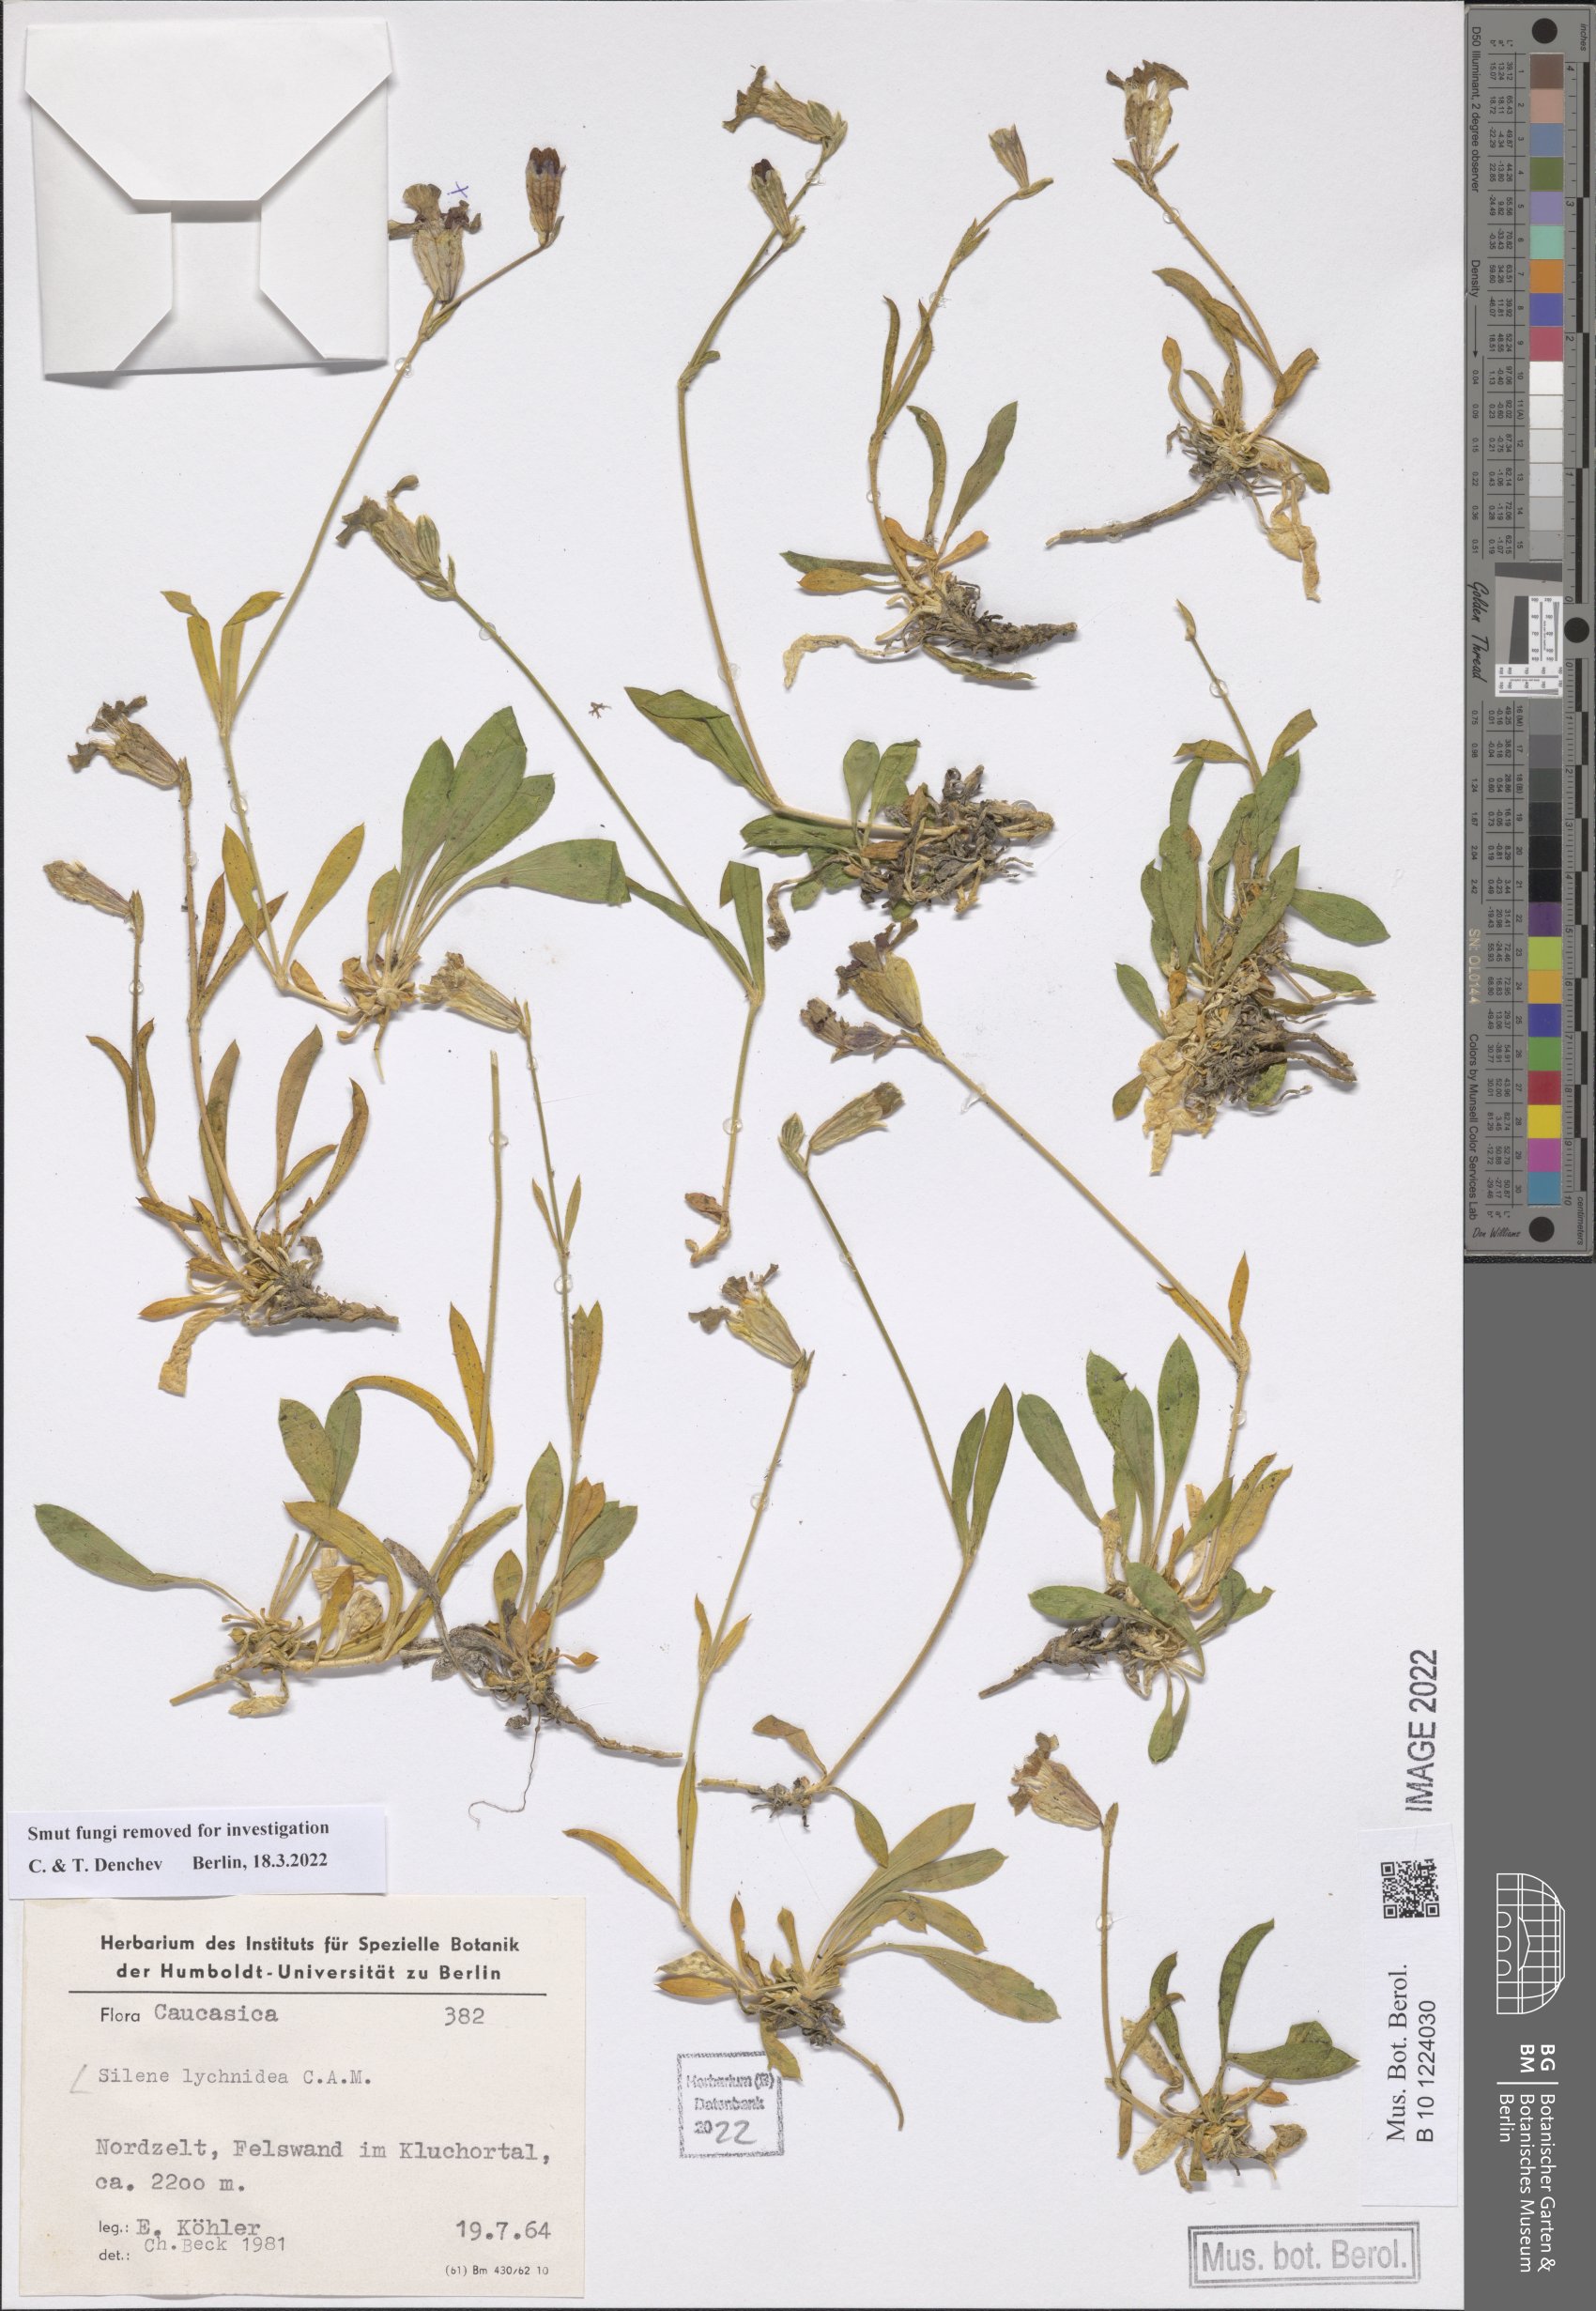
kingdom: Plantae
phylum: Tracheophyta
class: Magnoliopsida
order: Caryophyllales
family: Caryophyllaceae
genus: Silene
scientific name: Silene lychnidea
